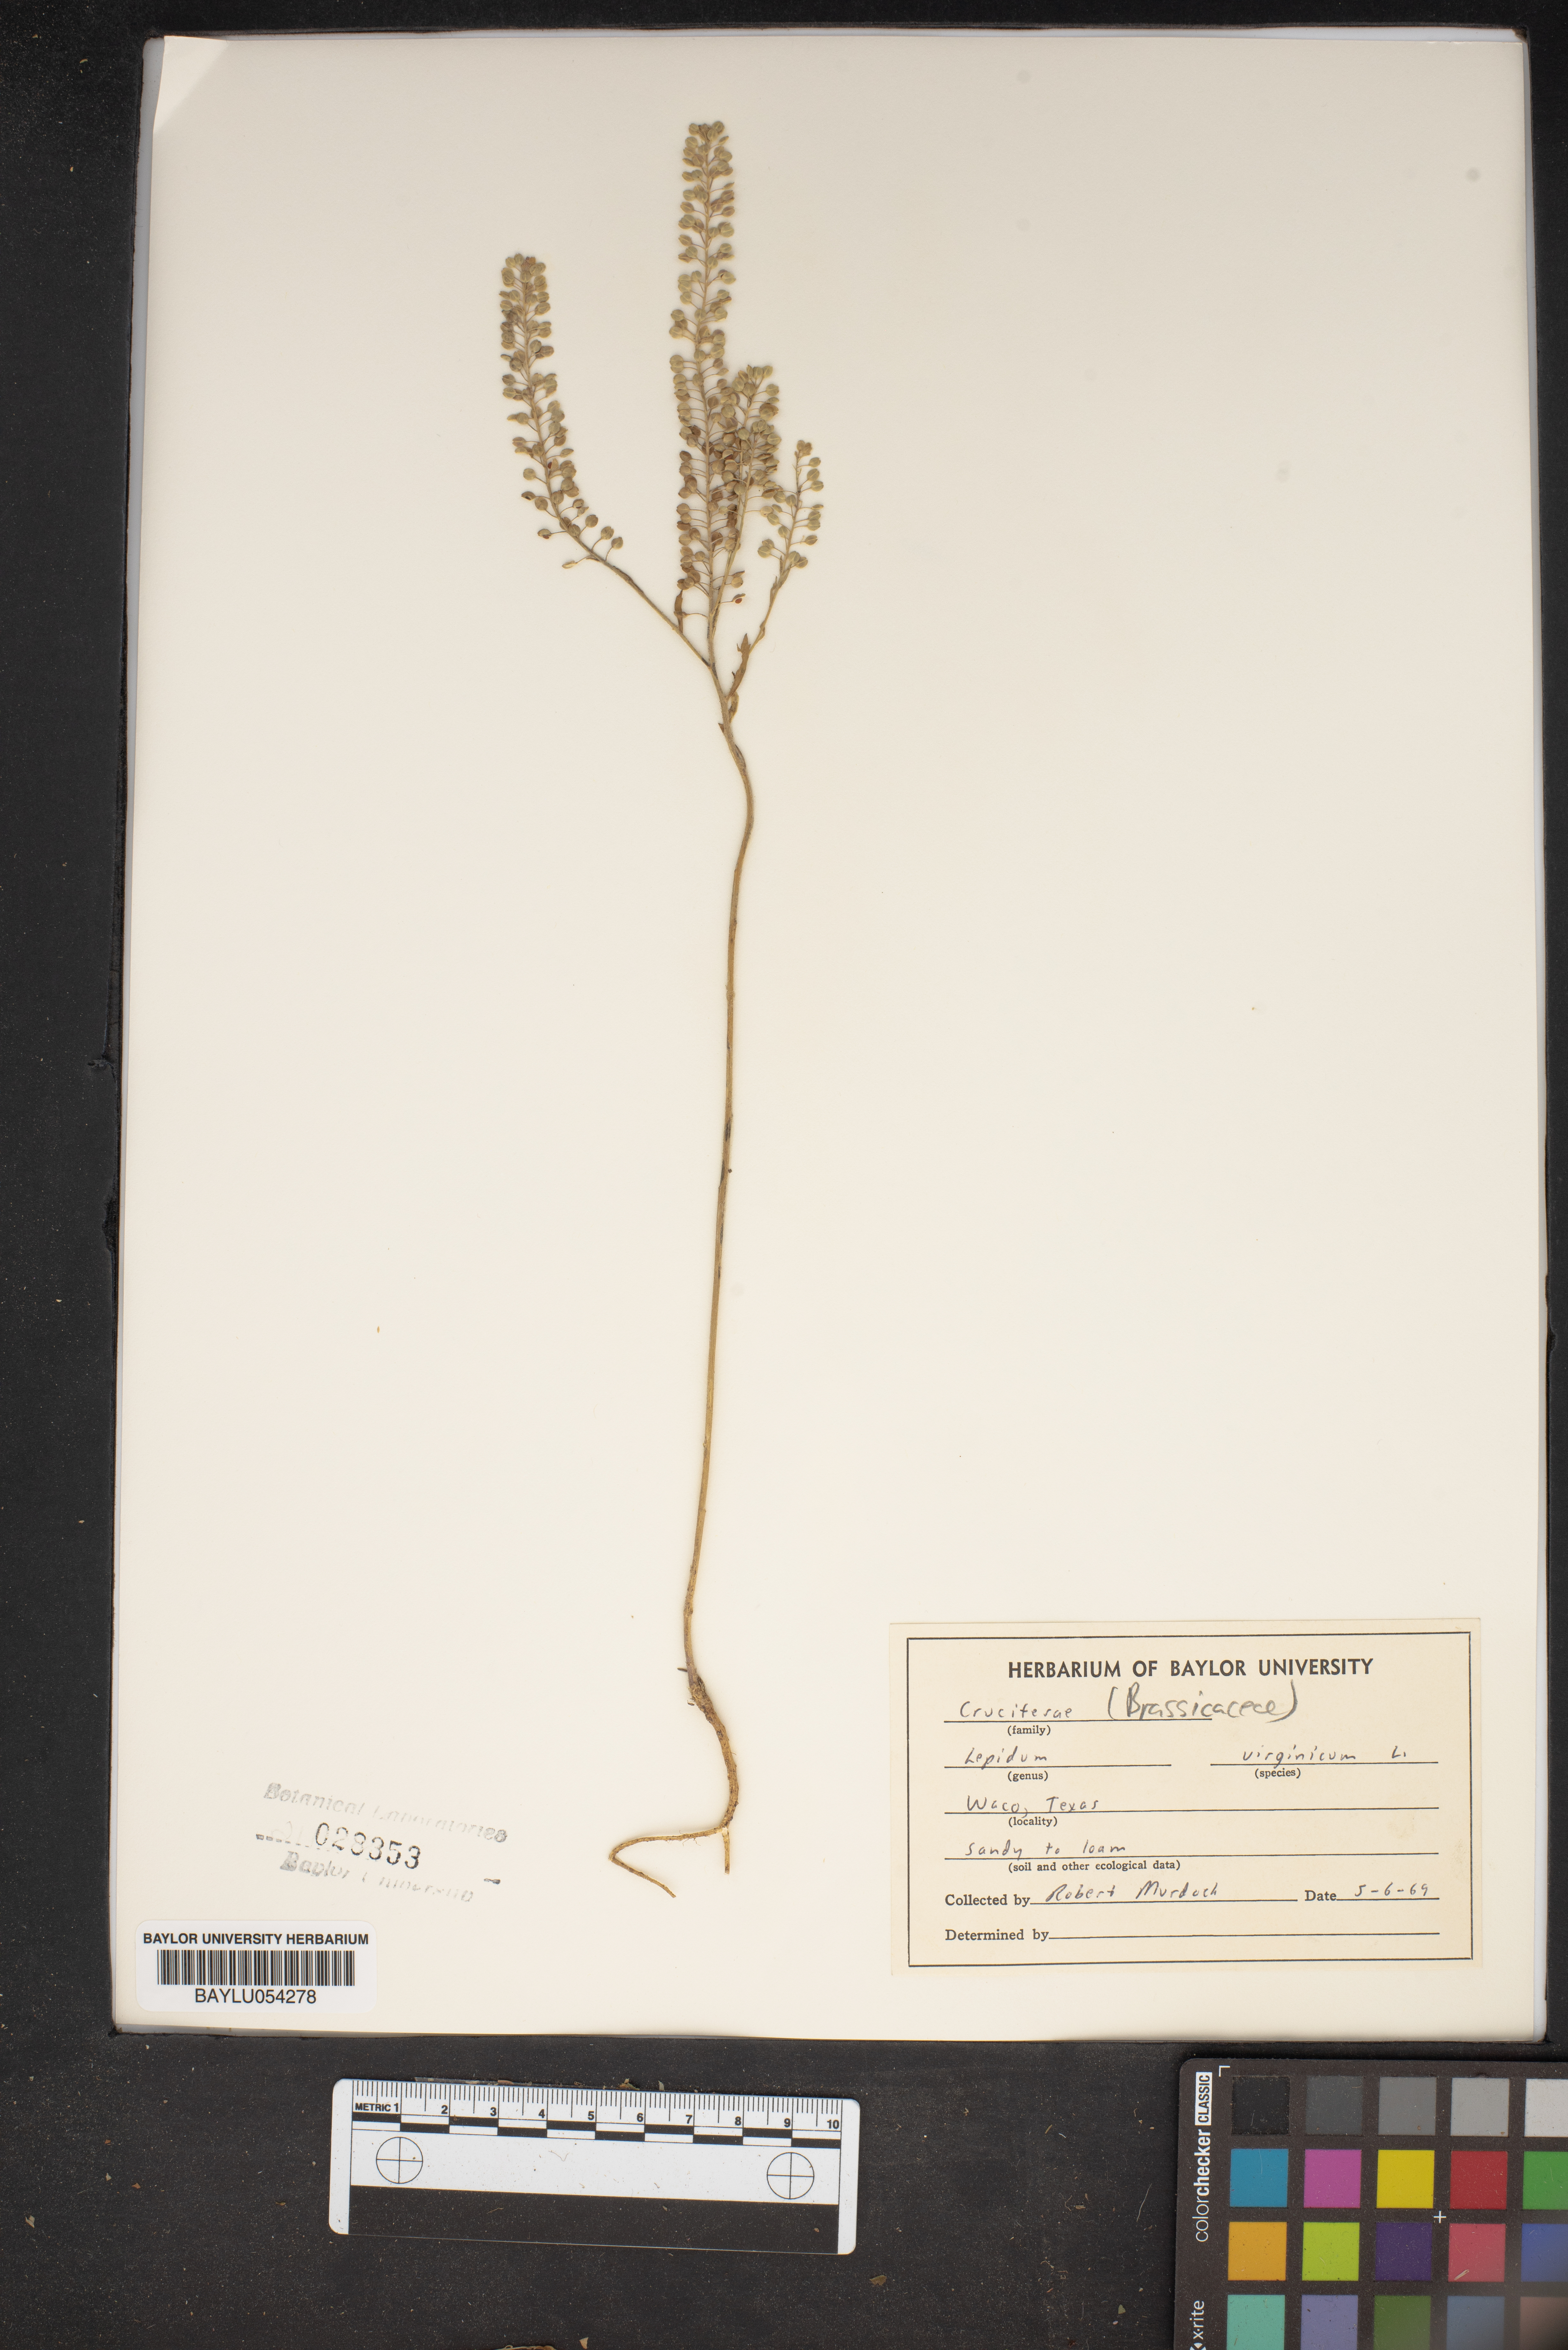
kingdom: Plantae
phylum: Tracheophyta
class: Magnoliopsida
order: Brassicales
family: Brassicaceae
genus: Lepidium
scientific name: Lepidium virginicum
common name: Least pepperwort
